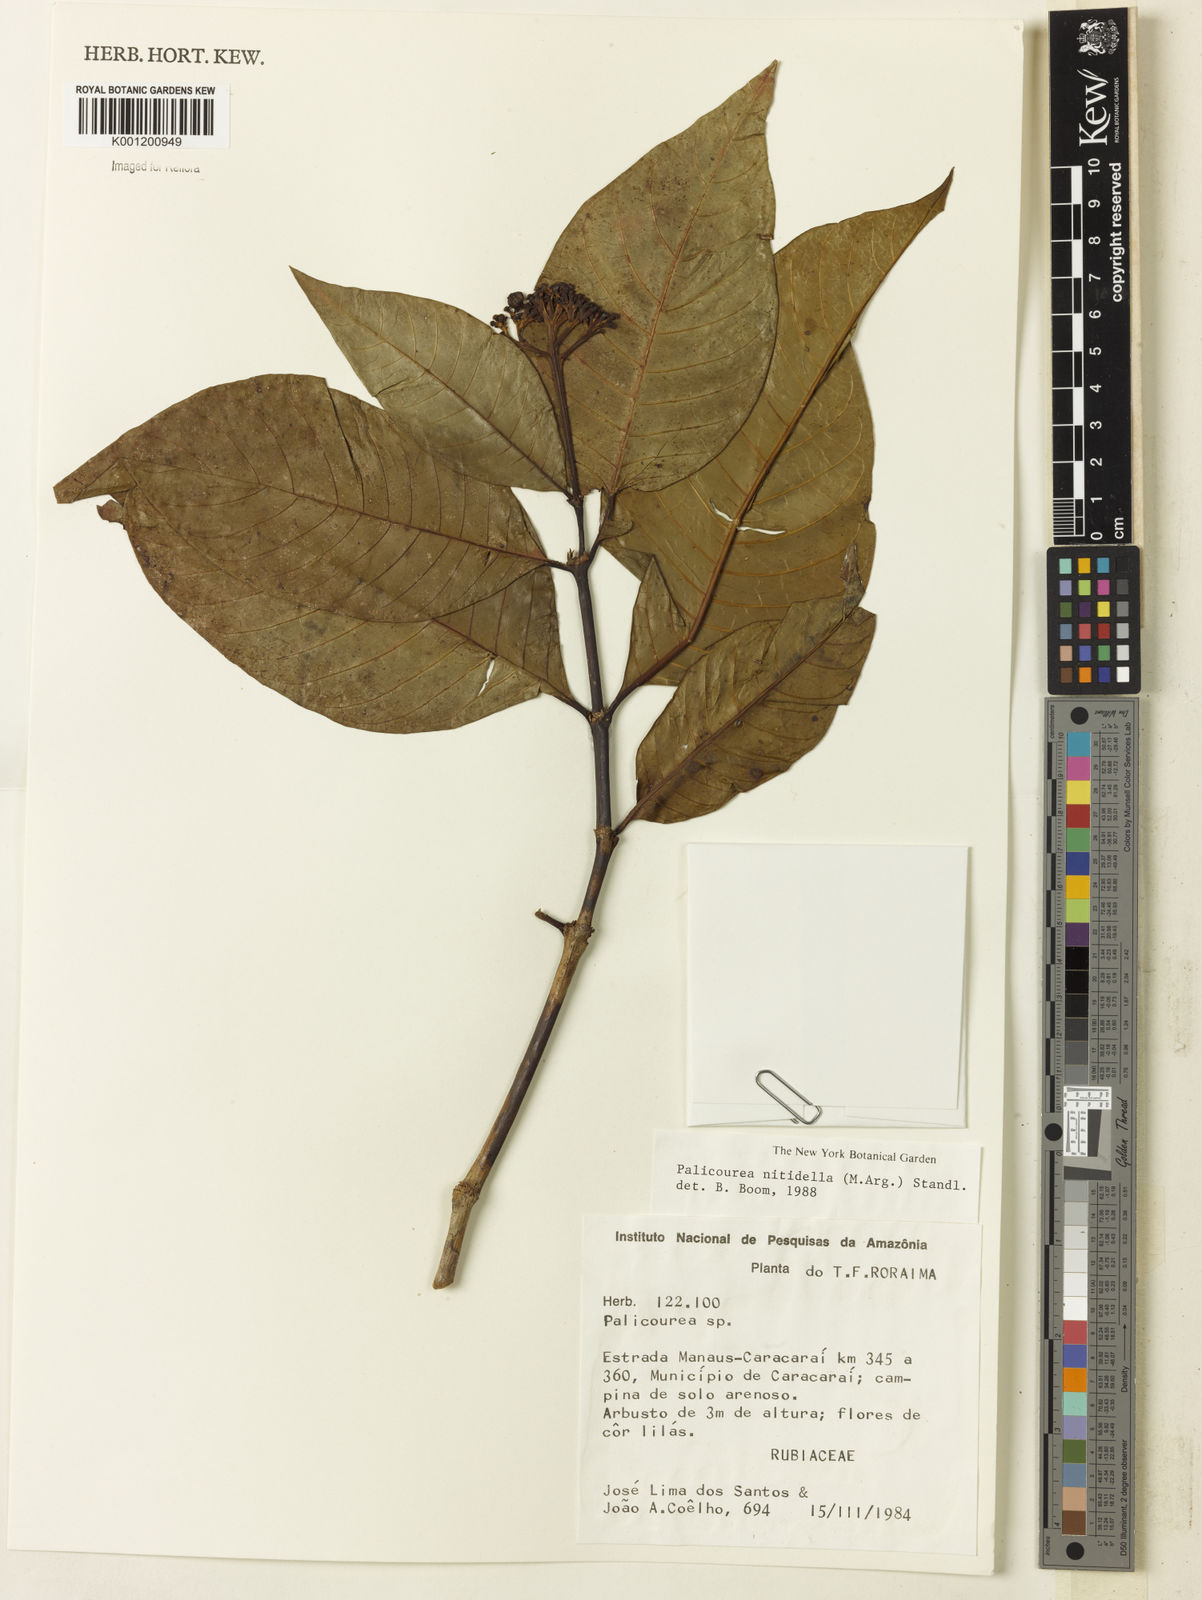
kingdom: Plantae
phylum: Tracheophyta
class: Magnoliopsida
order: Gentianales
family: Rubiaceae
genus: Palicourea
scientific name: Palicourea
